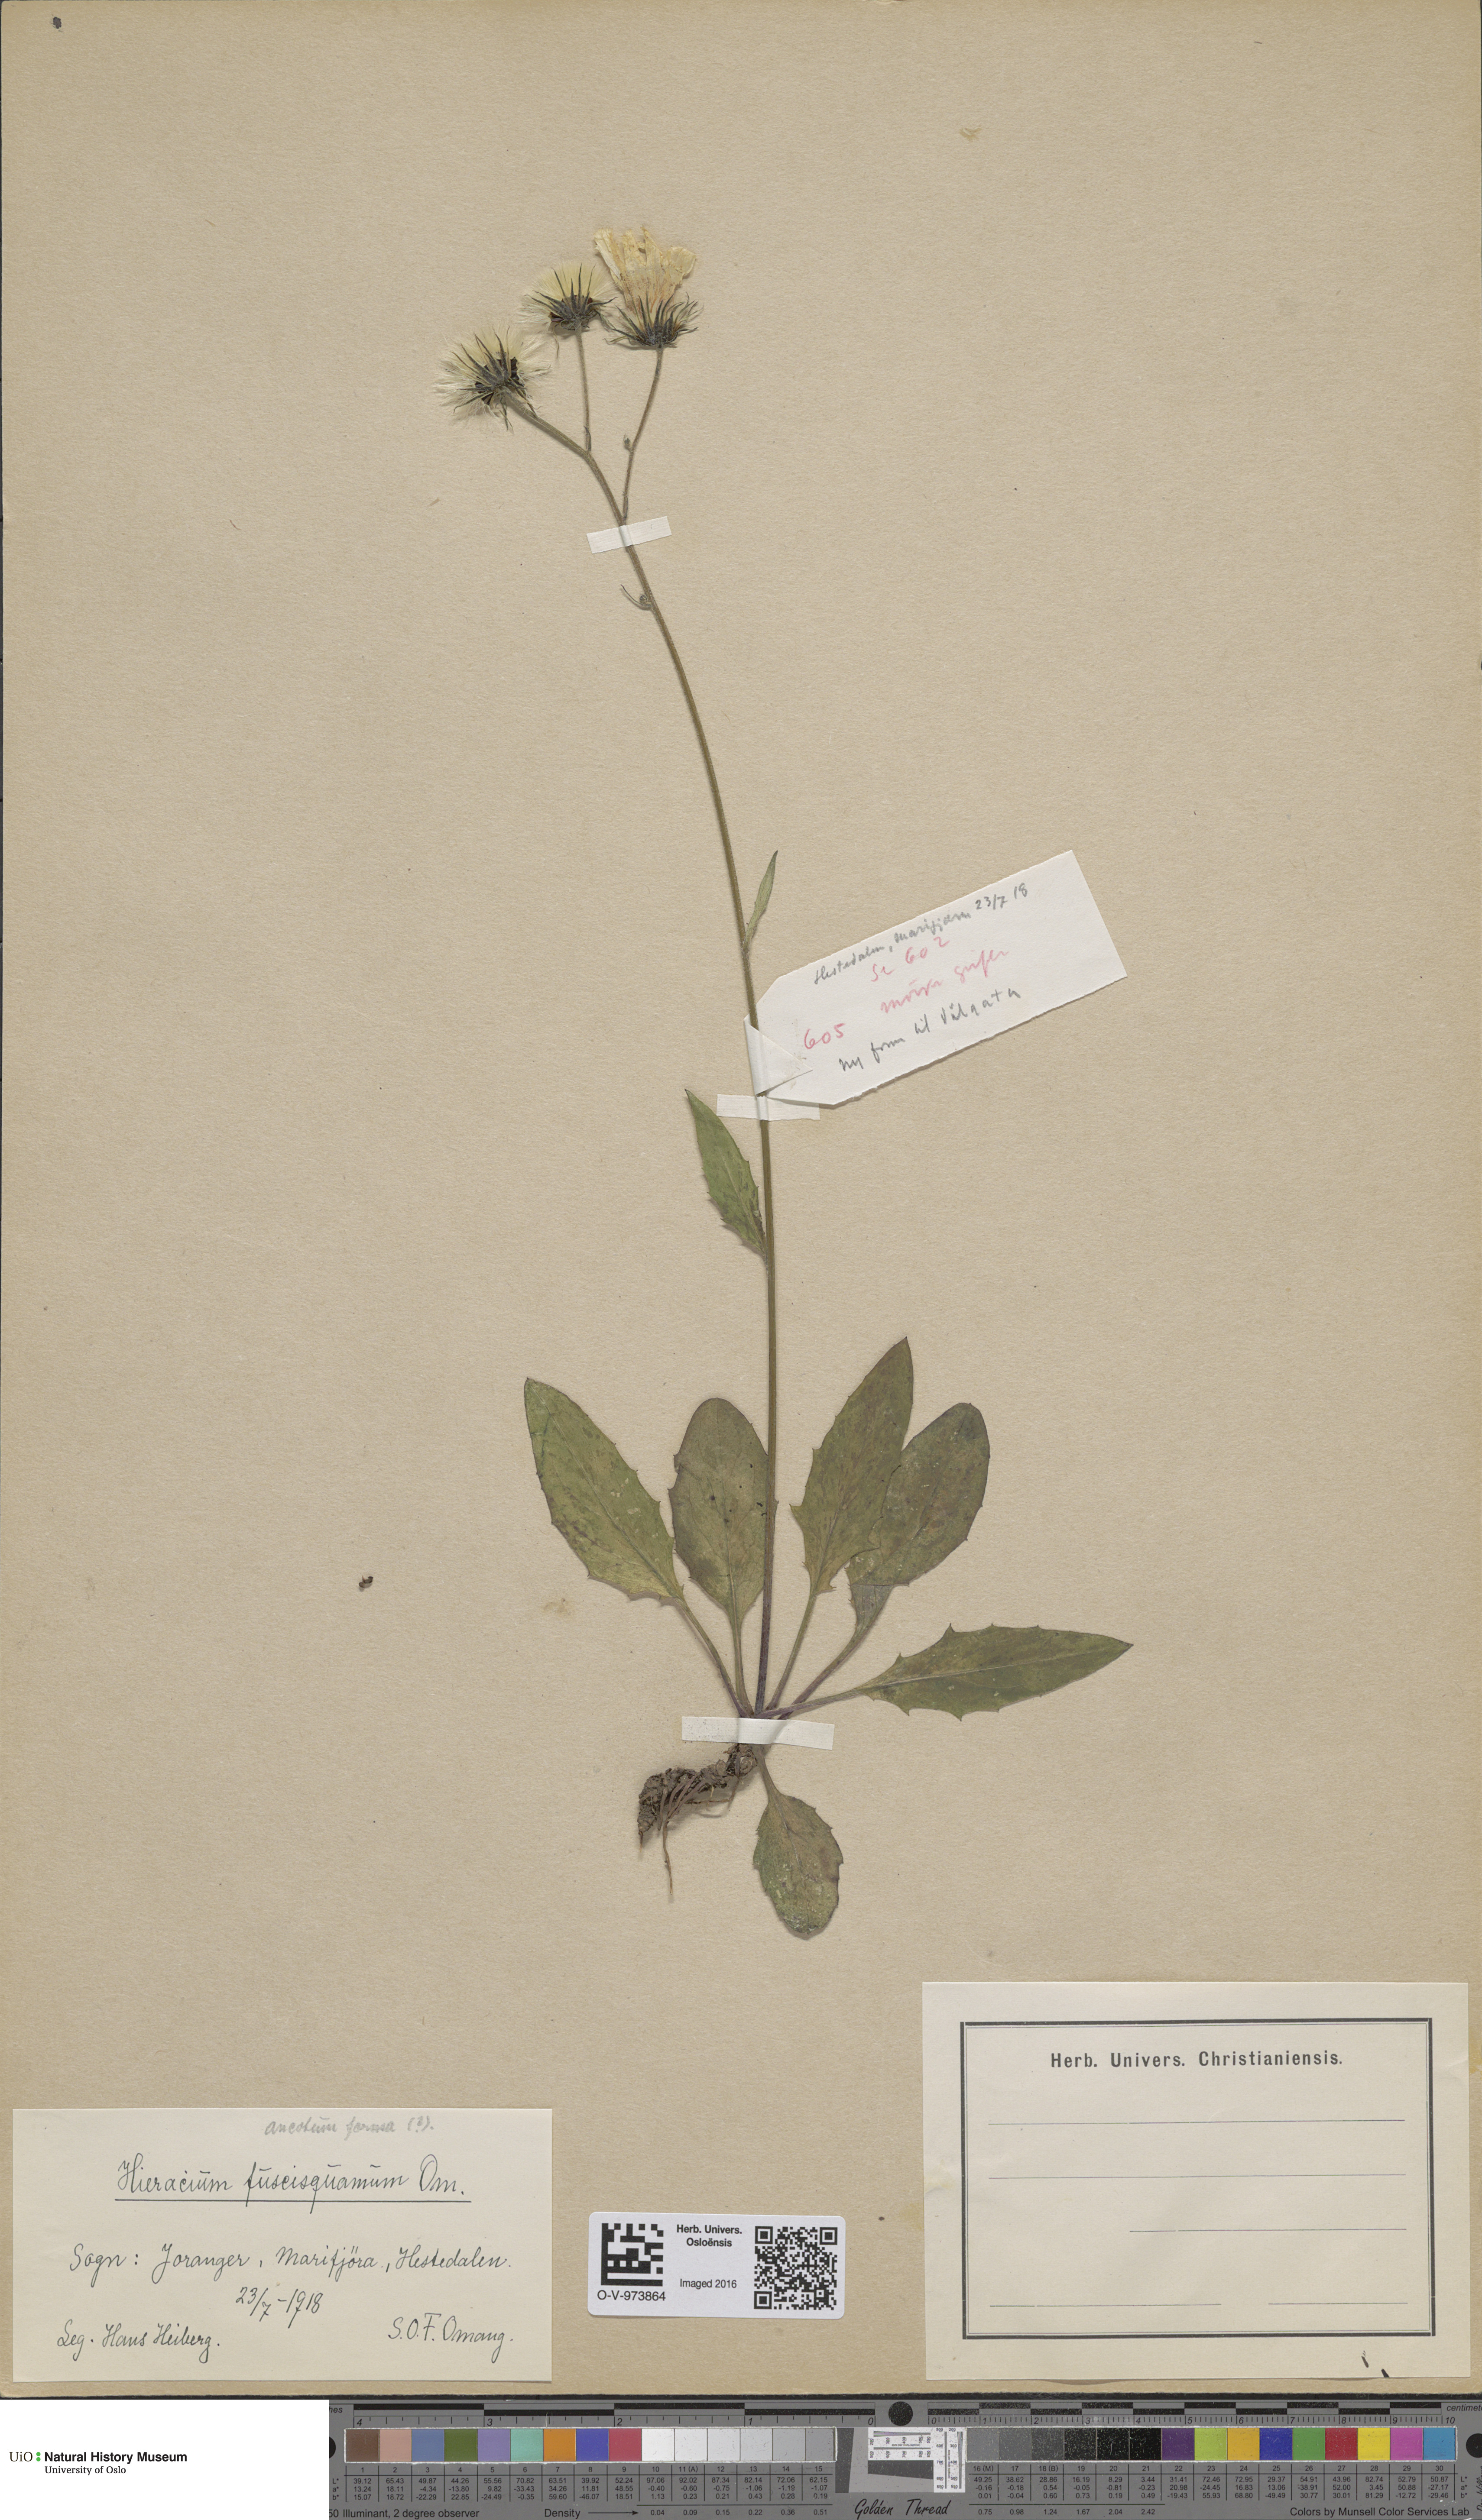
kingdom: Plantae
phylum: Tracheophyta
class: Magnoliopsida
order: Asterales
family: Asteraceae
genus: Hieracium
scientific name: Hieracium
